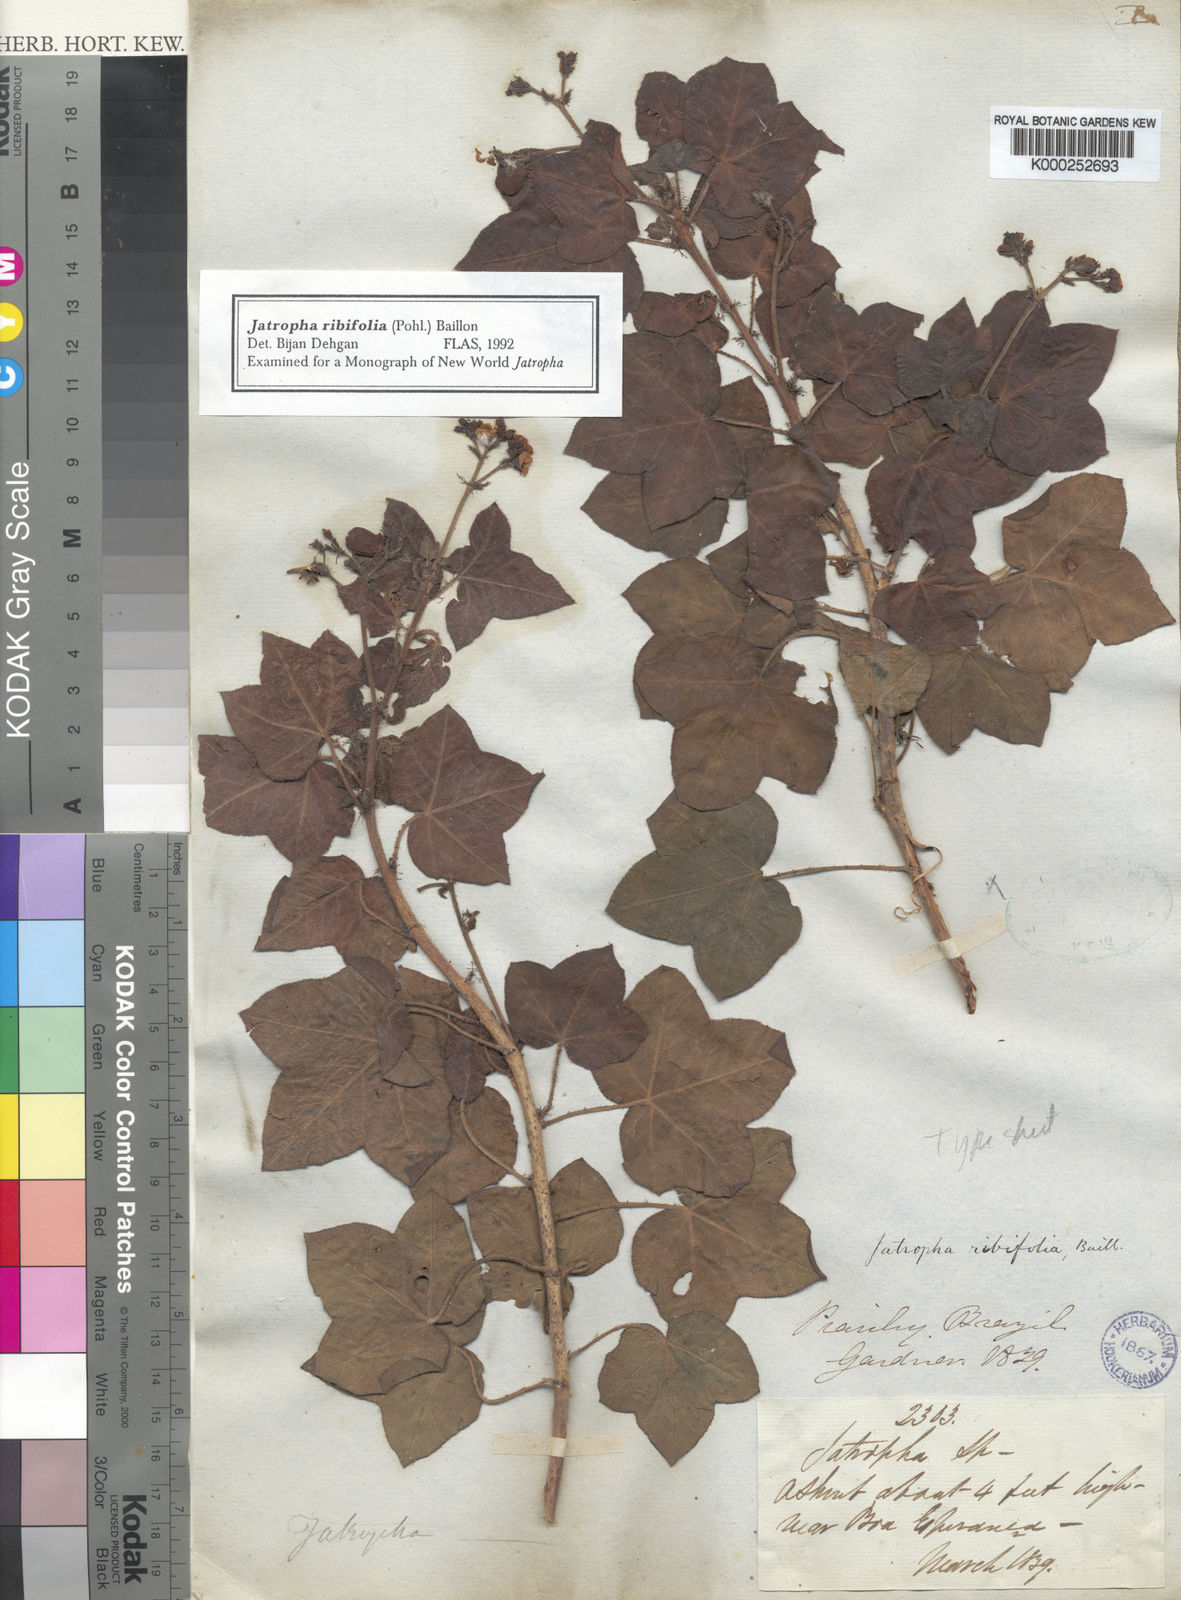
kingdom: Plantae
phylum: Tracheophyta
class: Magnoliopsida
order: Malpighiales
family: Euphorbiaceae
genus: Jatropha
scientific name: Jatropha ribifolia
